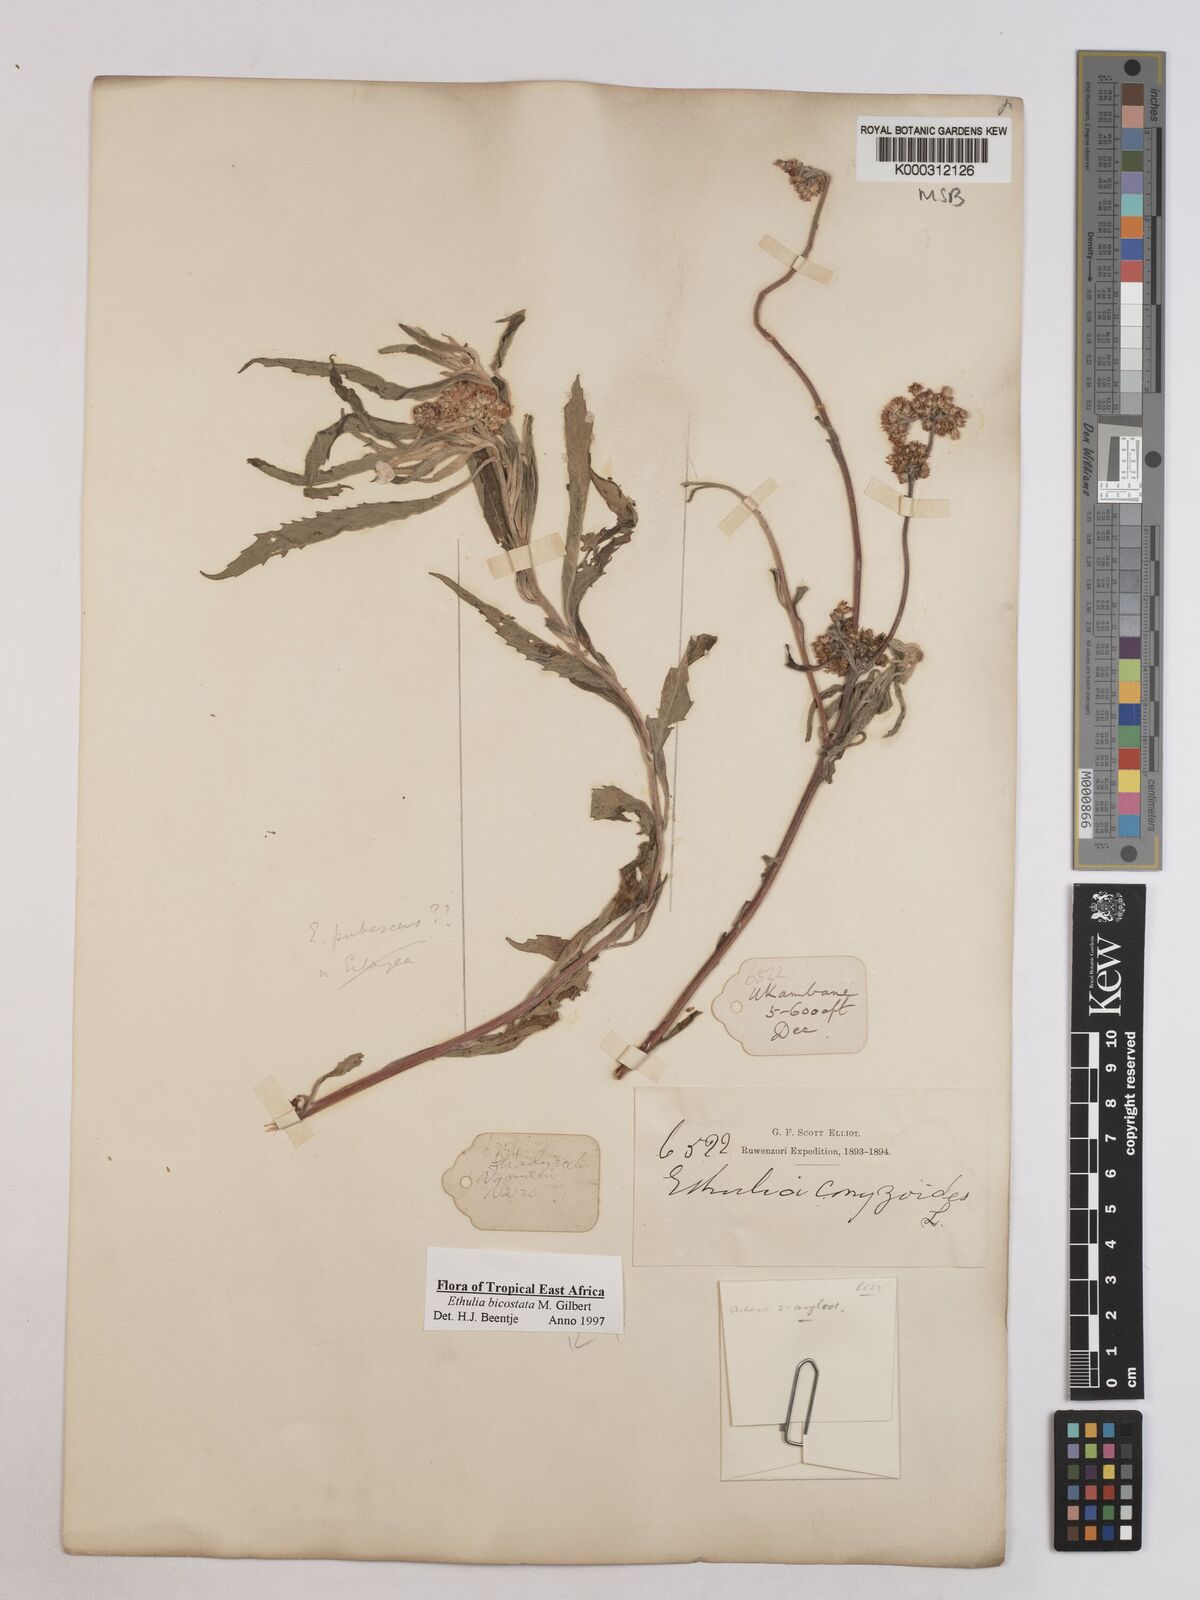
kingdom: Plantae
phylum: Tracheophyta
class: Magnoliopsida
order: Asterales
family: Asteraceae
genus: Ethulia
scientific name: Ethulia bicostata
